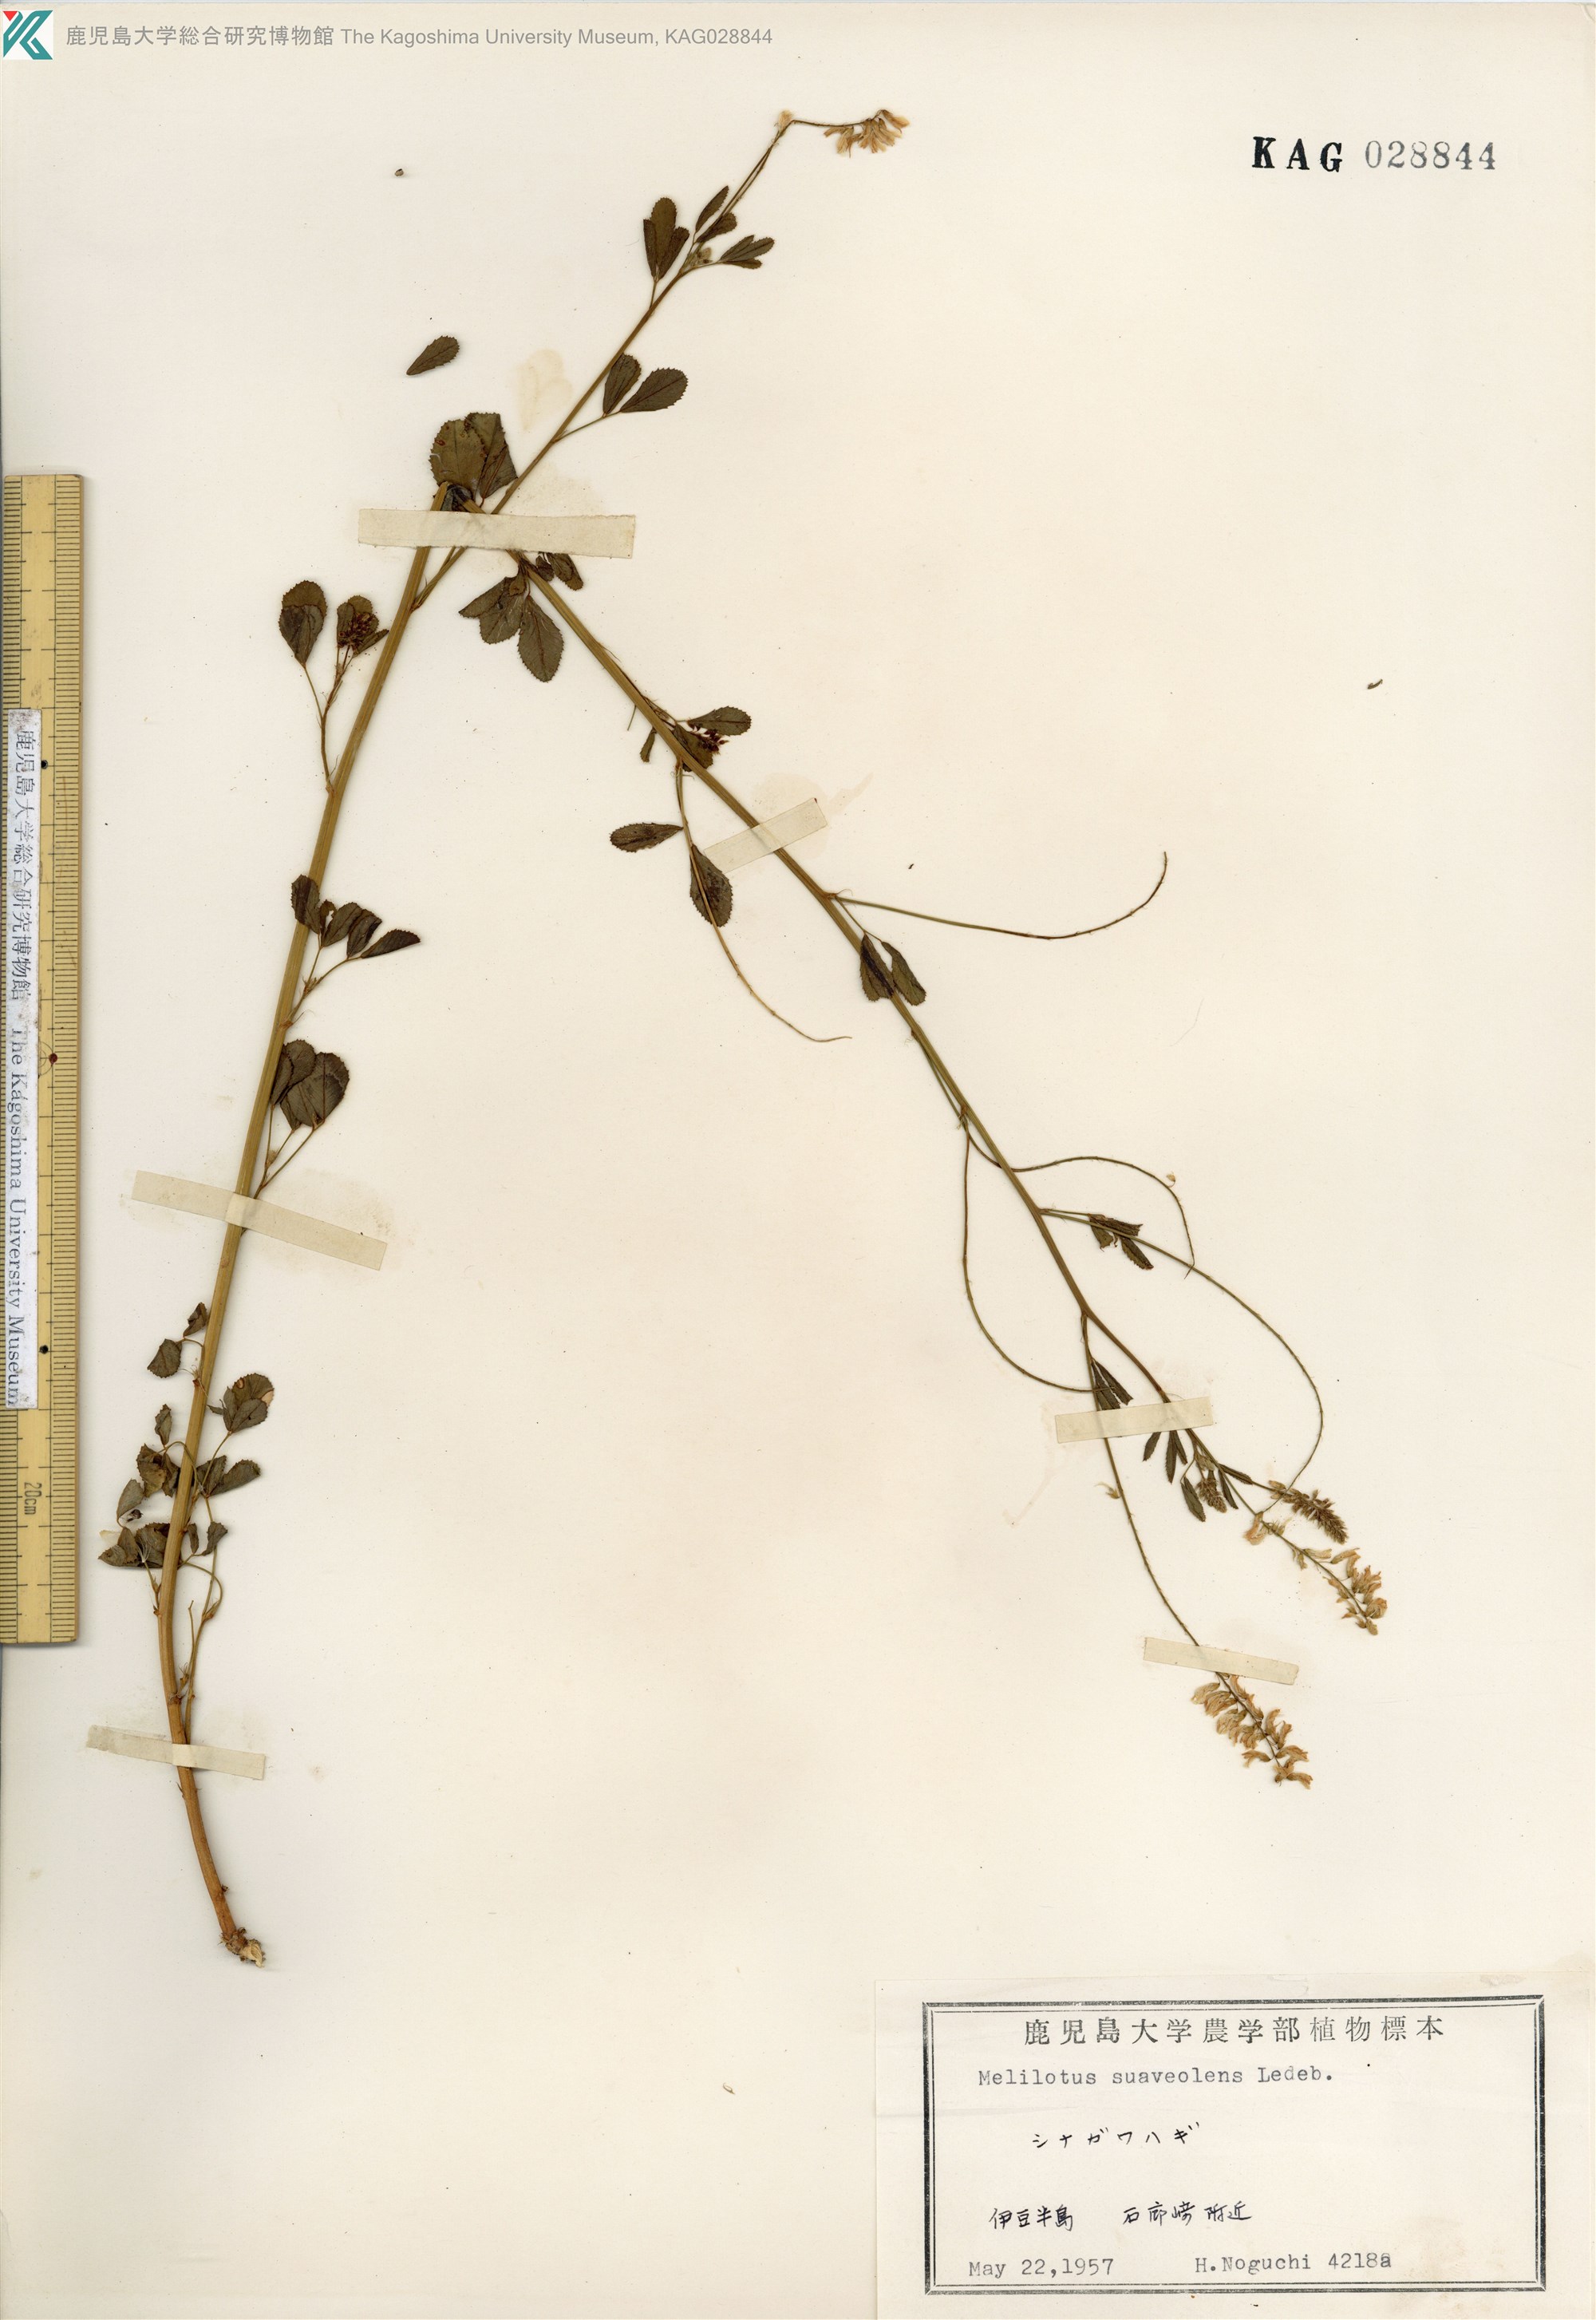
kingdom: Plantae
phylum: Tracheophyta
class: Magnoliopsida
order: Fabales
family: Fabaceae
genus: Melilotus
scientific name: Melilotus suaveolens
